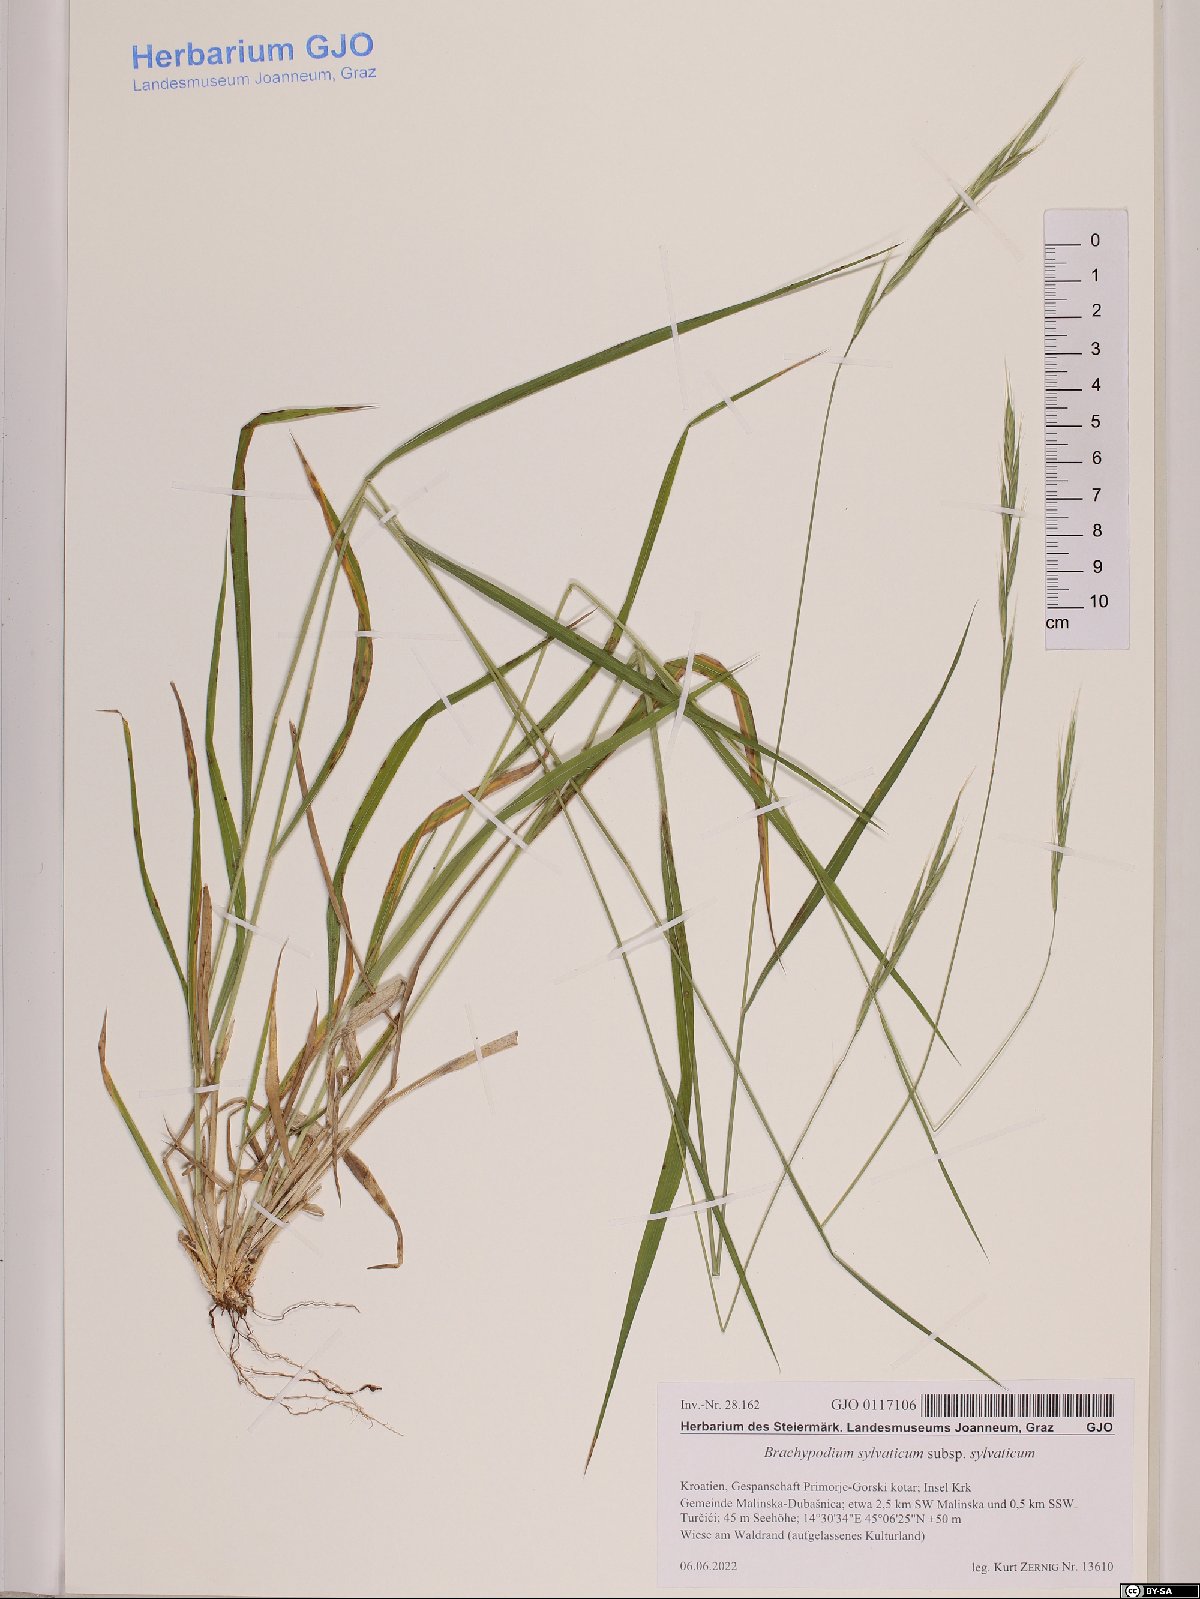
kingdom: Plantae
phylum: Tracheophyta
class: Liliopsida
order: Poales
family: Poaceae
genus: Brachypodium
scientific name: Brachypodium sylvaticum
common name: False-brome
